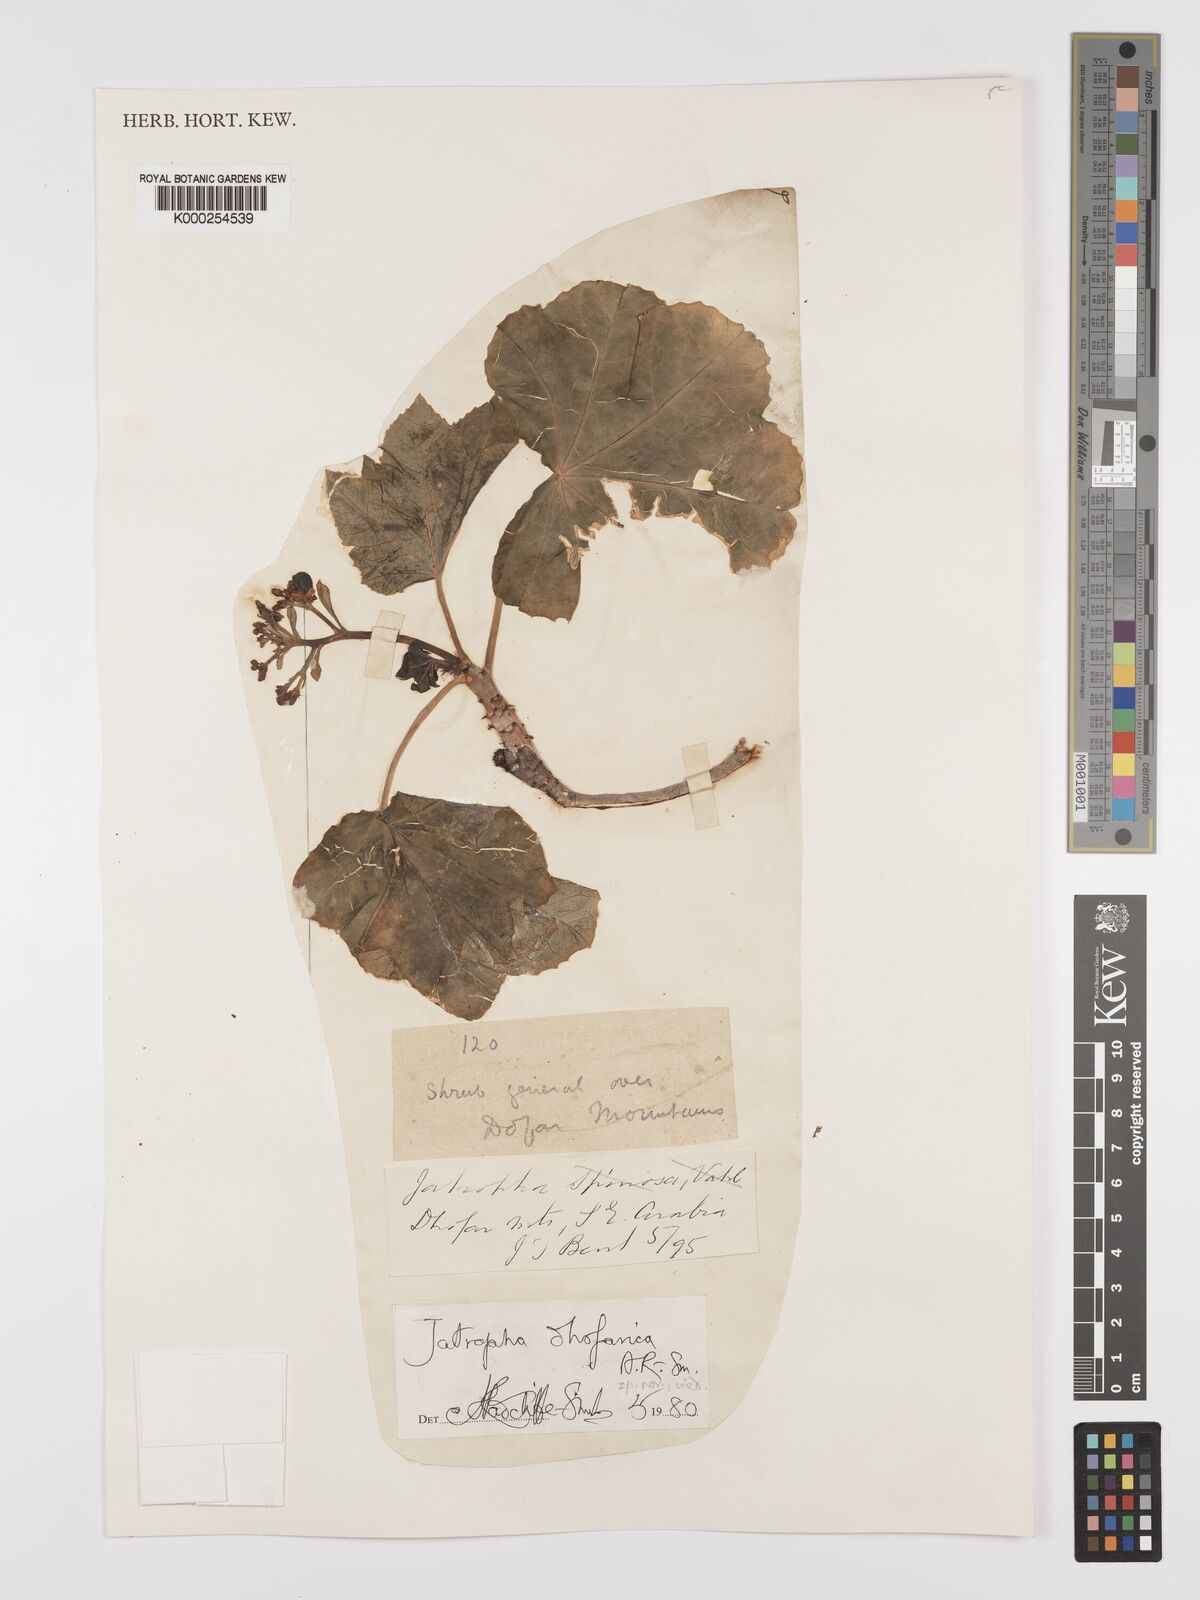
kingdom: Plantae
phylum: Tracheophyta
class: Magnoliopsida
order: Malpighiales
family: Euphorbiaceae
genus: Jatropha
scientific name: Jatropha dhofarica
